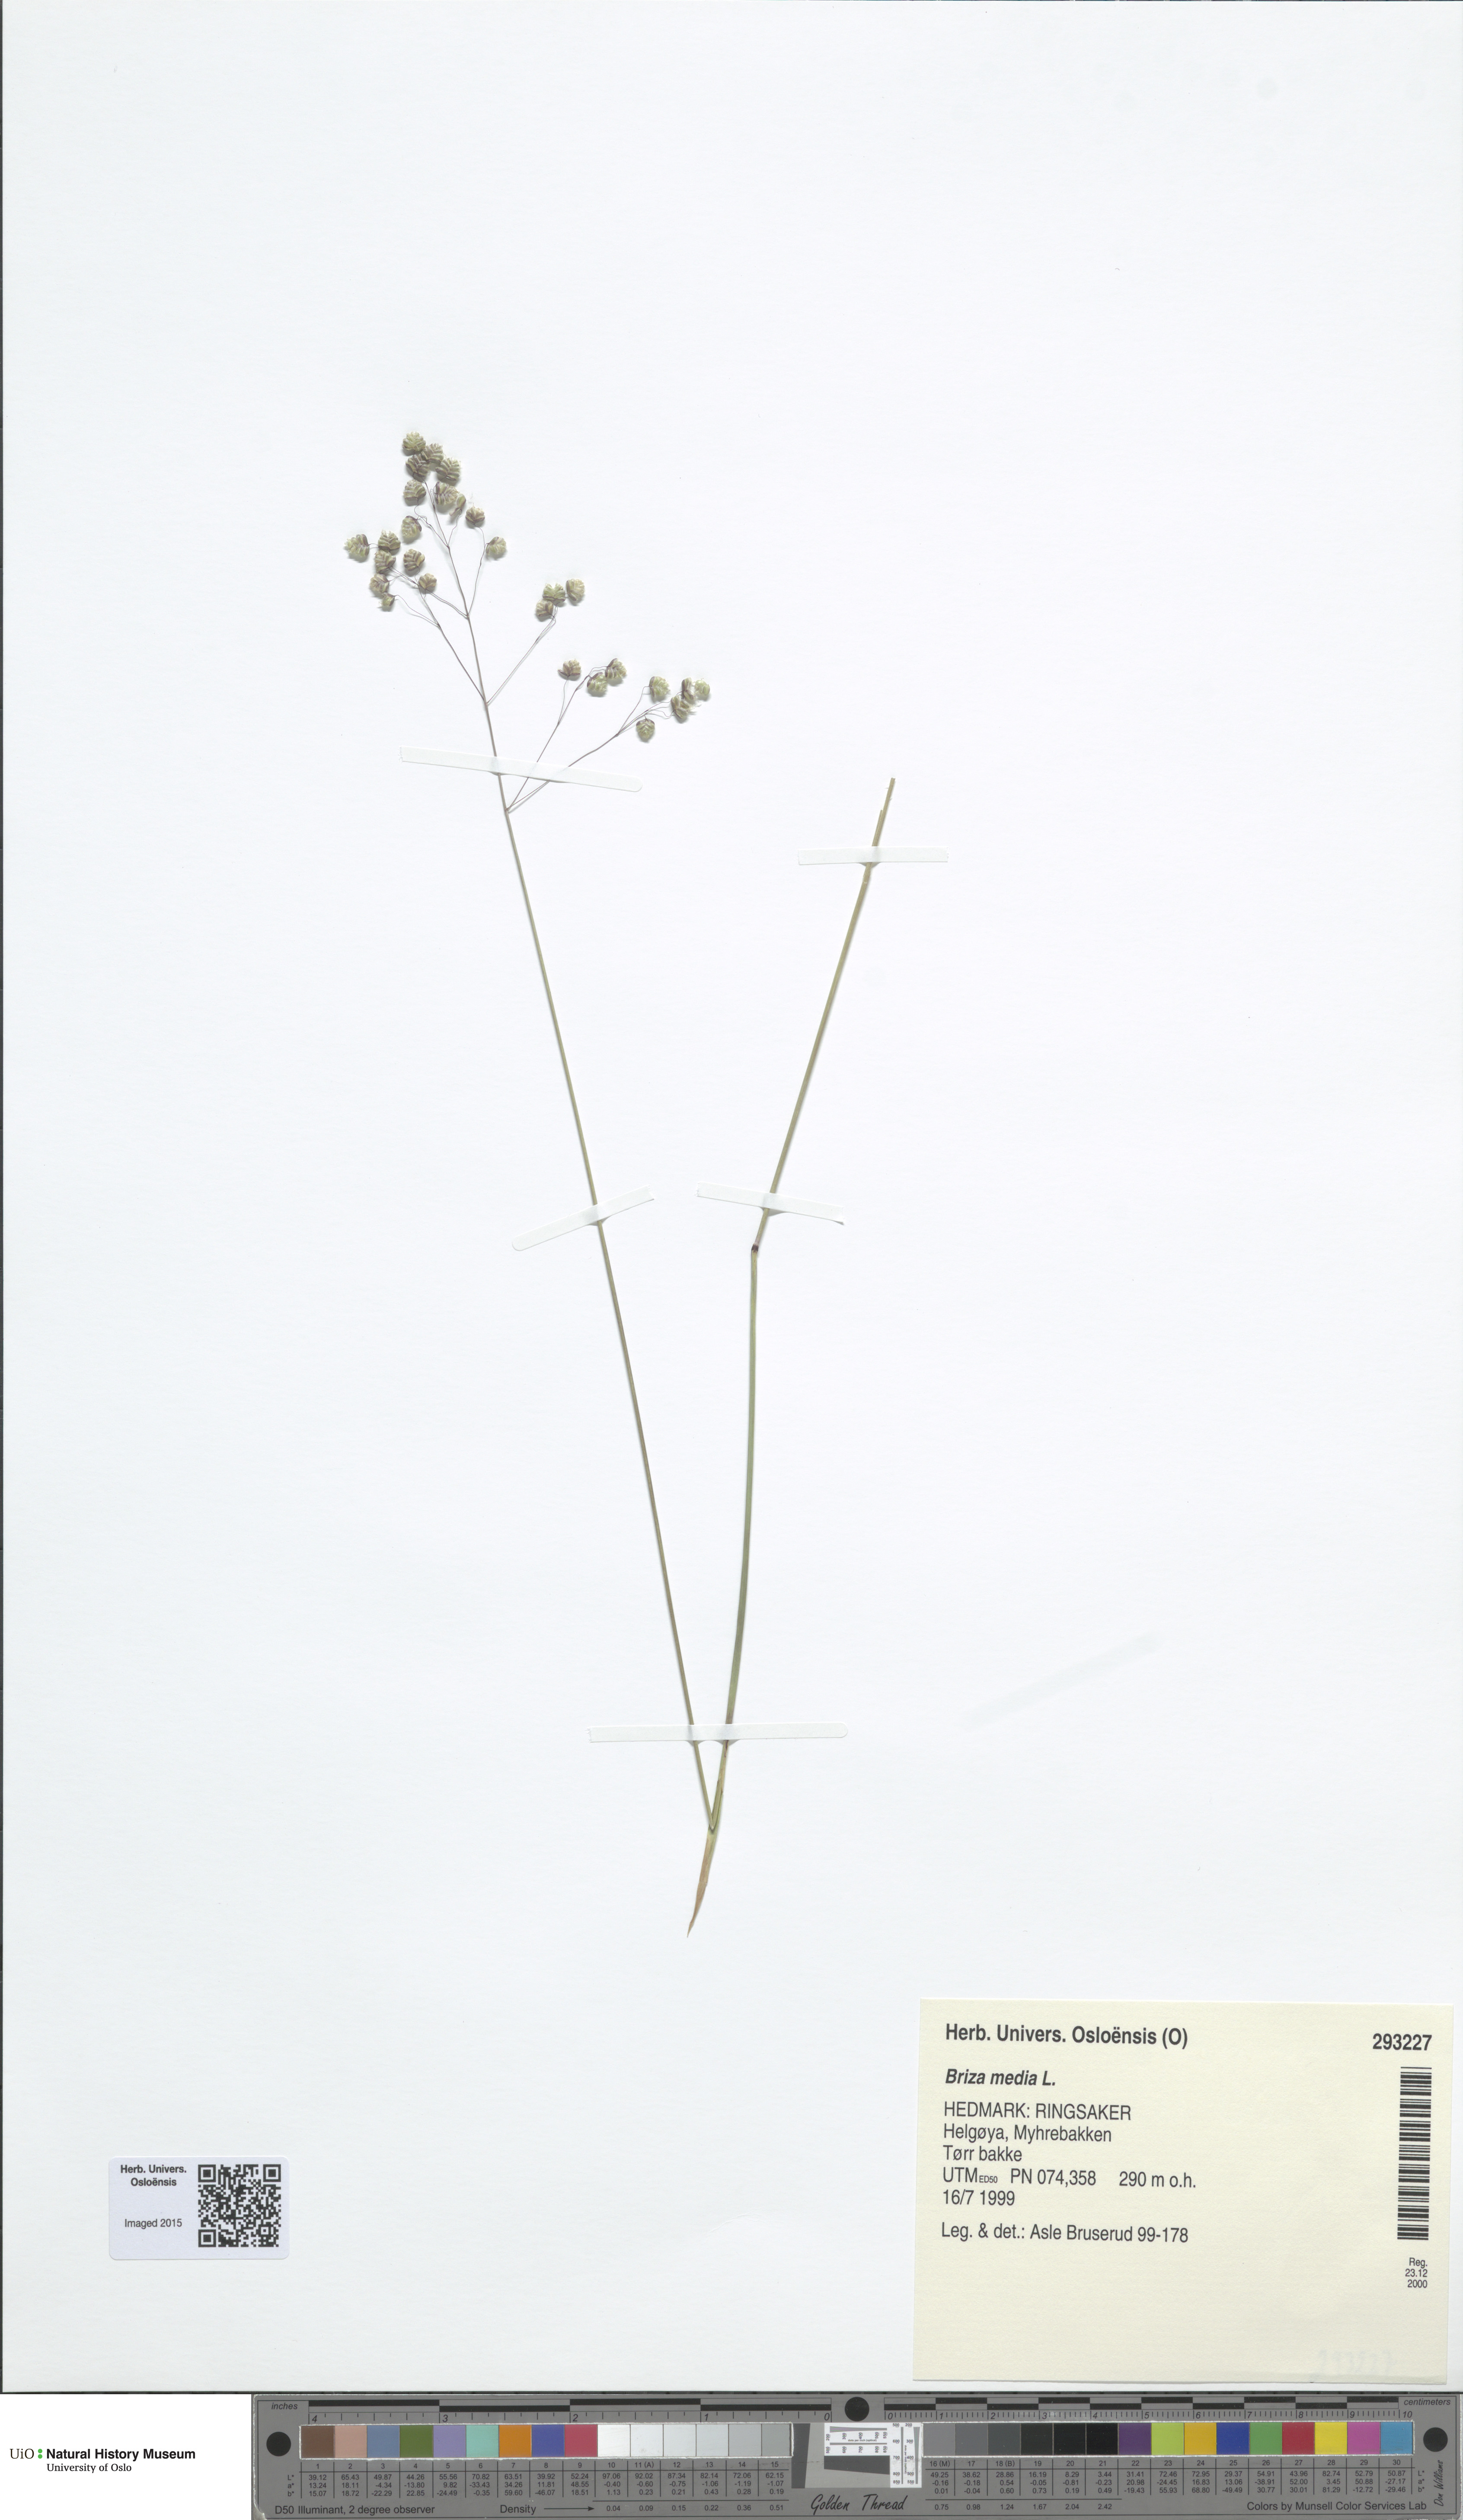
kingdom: Plantae
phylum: Tracheophyta
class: Liliopsida
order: Poales
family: Poaceae
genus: Briza
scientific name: Briza media
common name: Quaking grass
